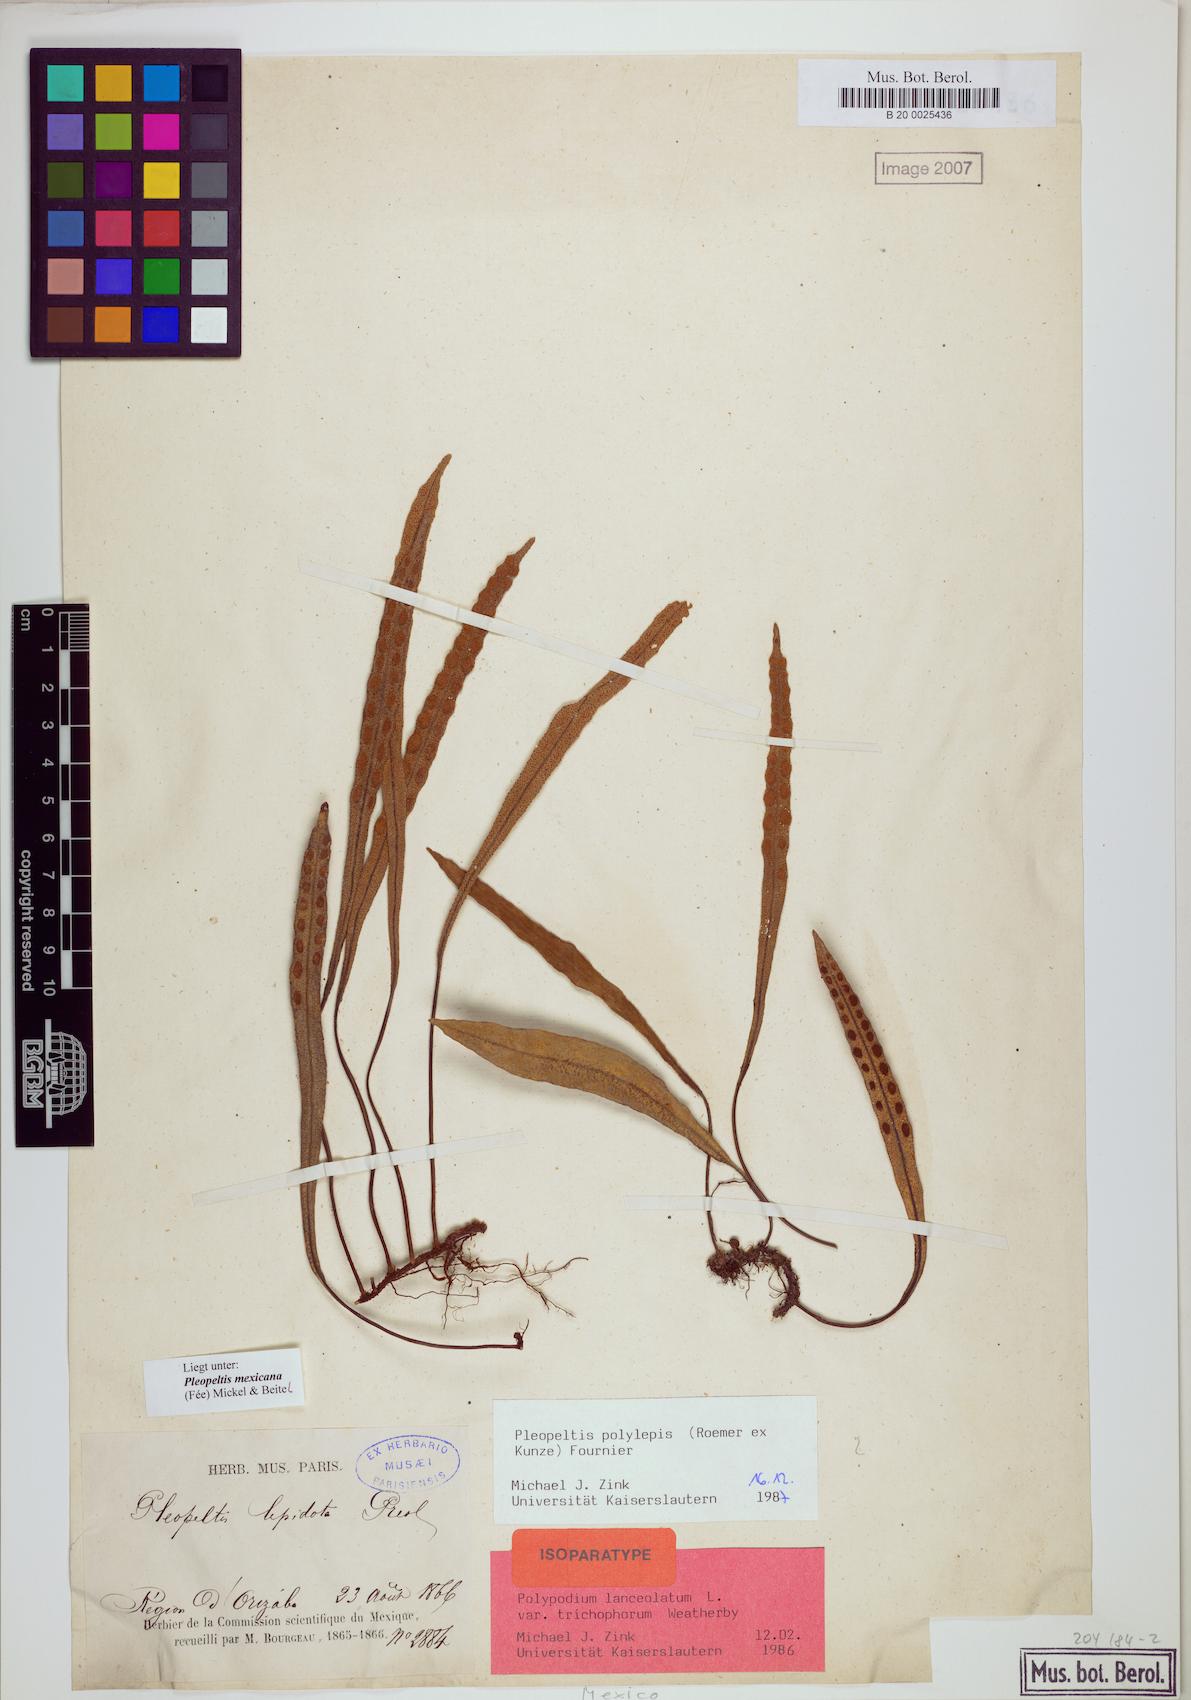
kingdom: Plantae
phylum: Tracheophyta
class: Polypodiopsida
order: Polypodiales
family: Polypodiaceae
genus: Pleopeltis
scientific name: Pleopeltis mexicana
